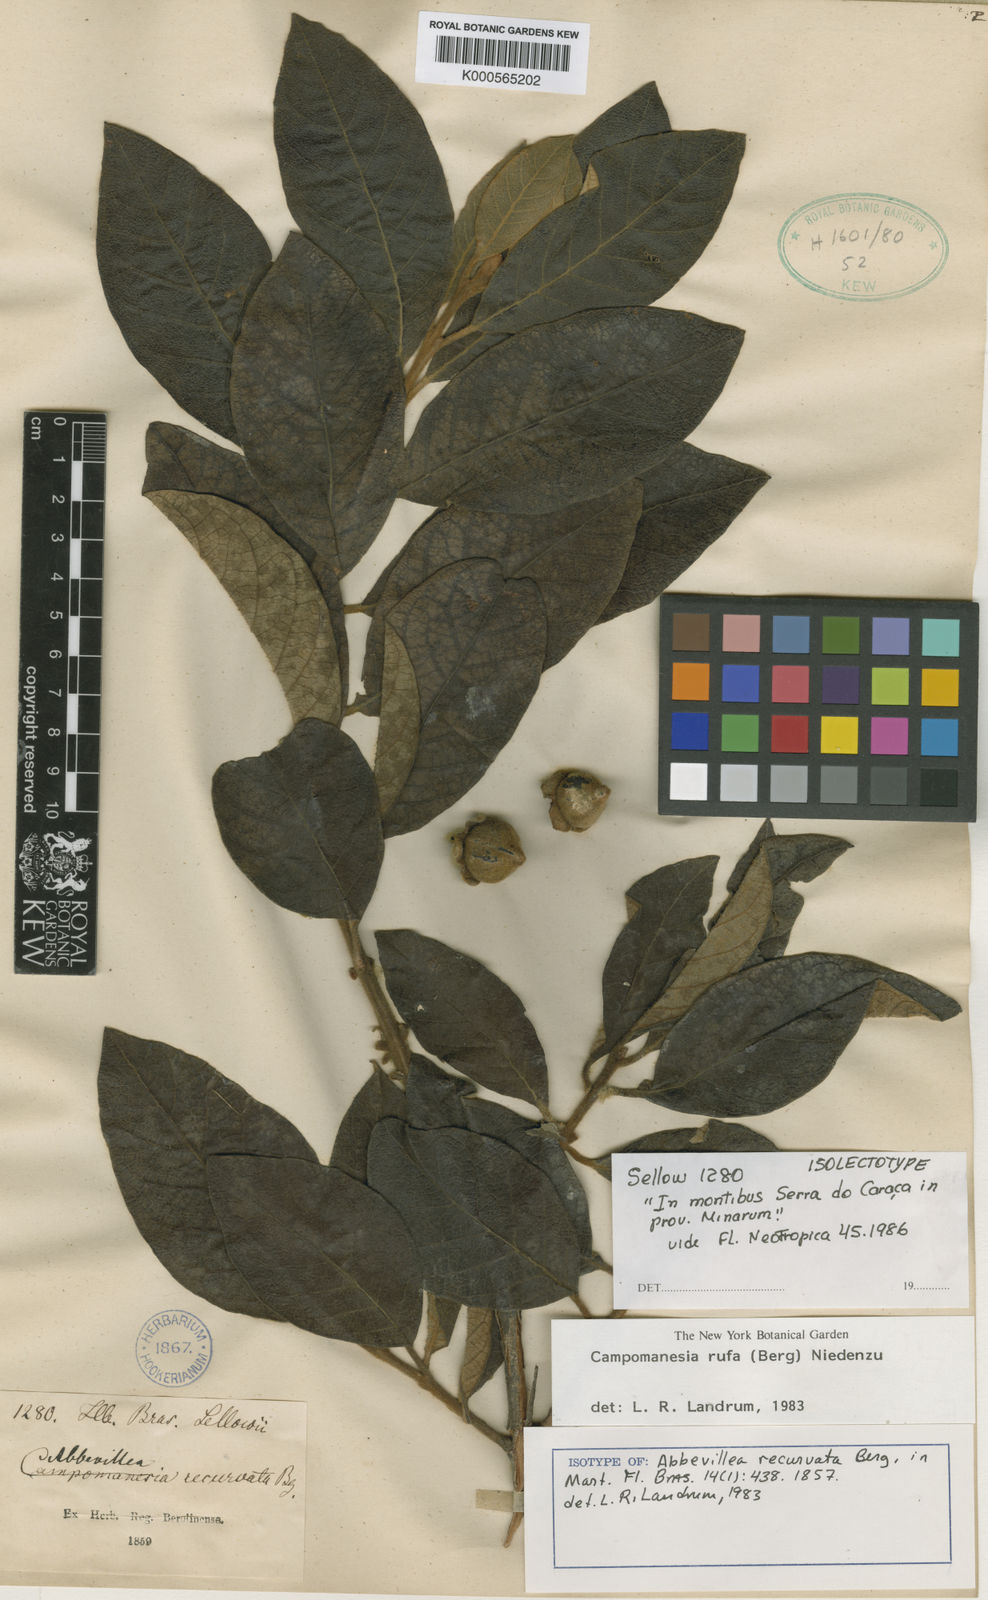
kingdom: Plantae
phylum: Tracheophyta
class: Magnoliopsida
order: Myrtales
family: Myrtaceae
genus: Psidium
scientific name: Psidium rufum
